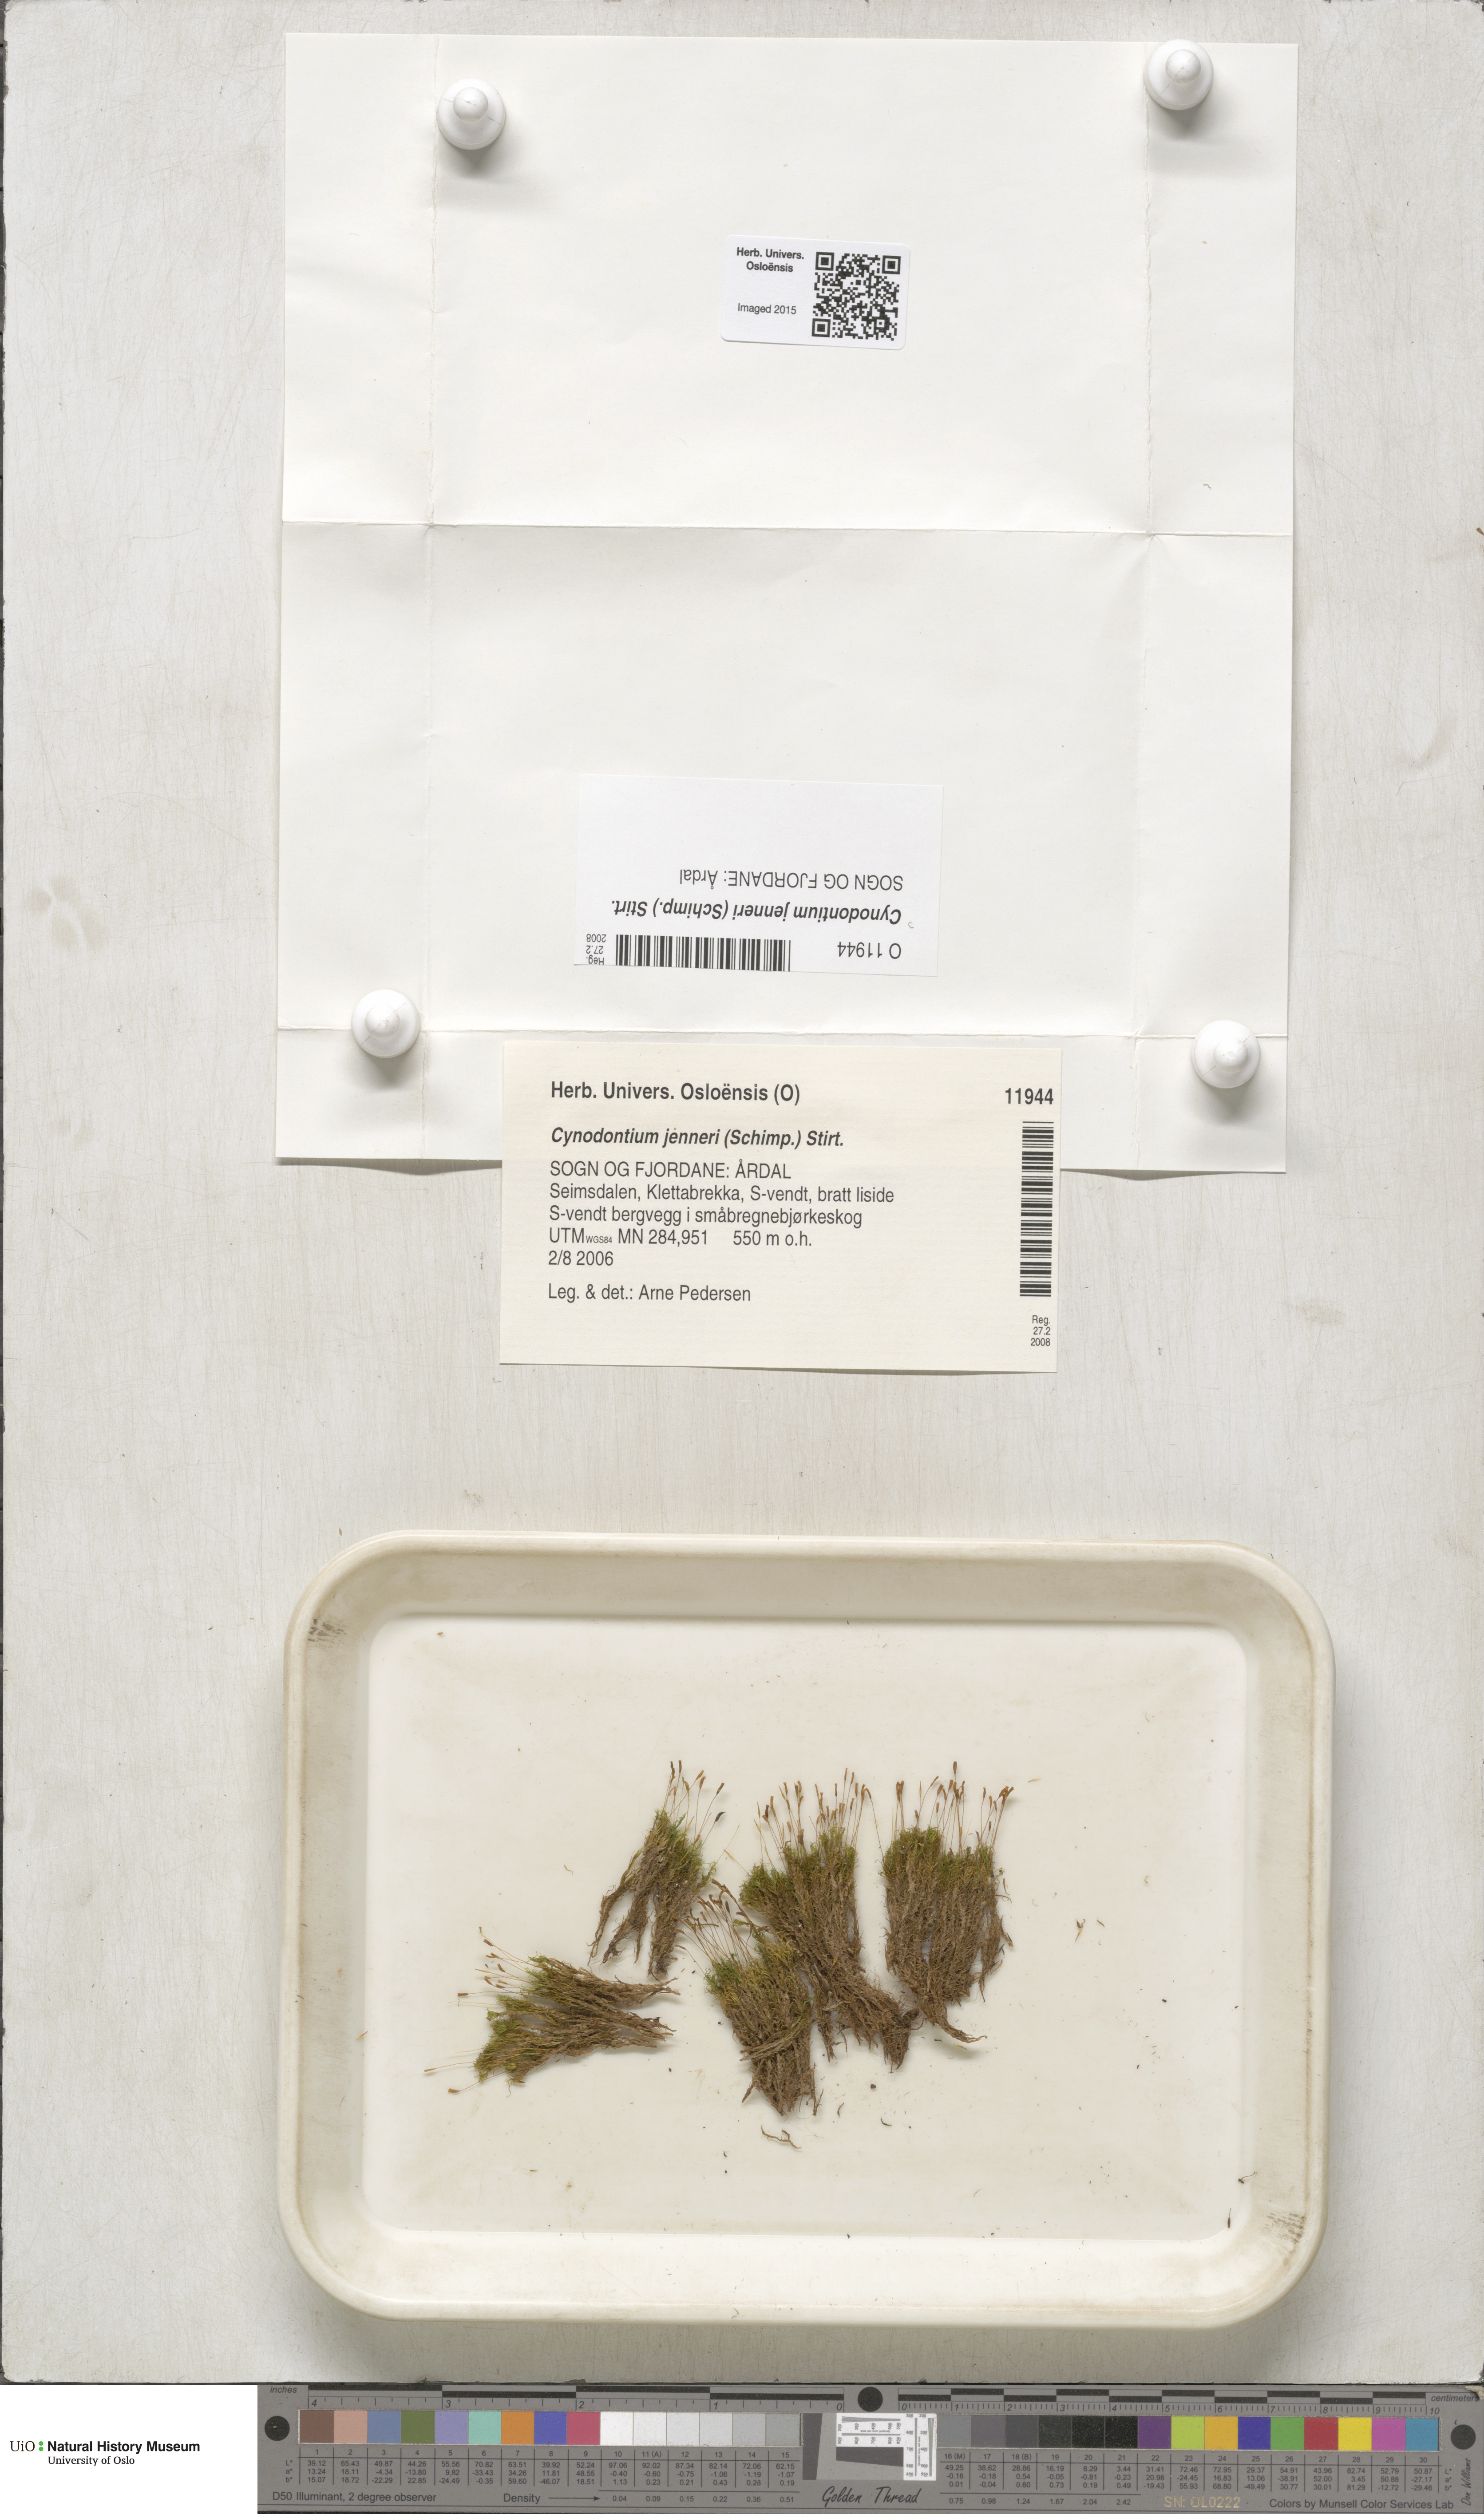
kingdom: Plantae
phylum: Bryophyta
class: Bryopsida
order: Dicranales
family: Rhabdoweisiaceae
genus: Cynodontium
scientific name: Cynodontium jenneri
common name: Jenner's dog-tooth
